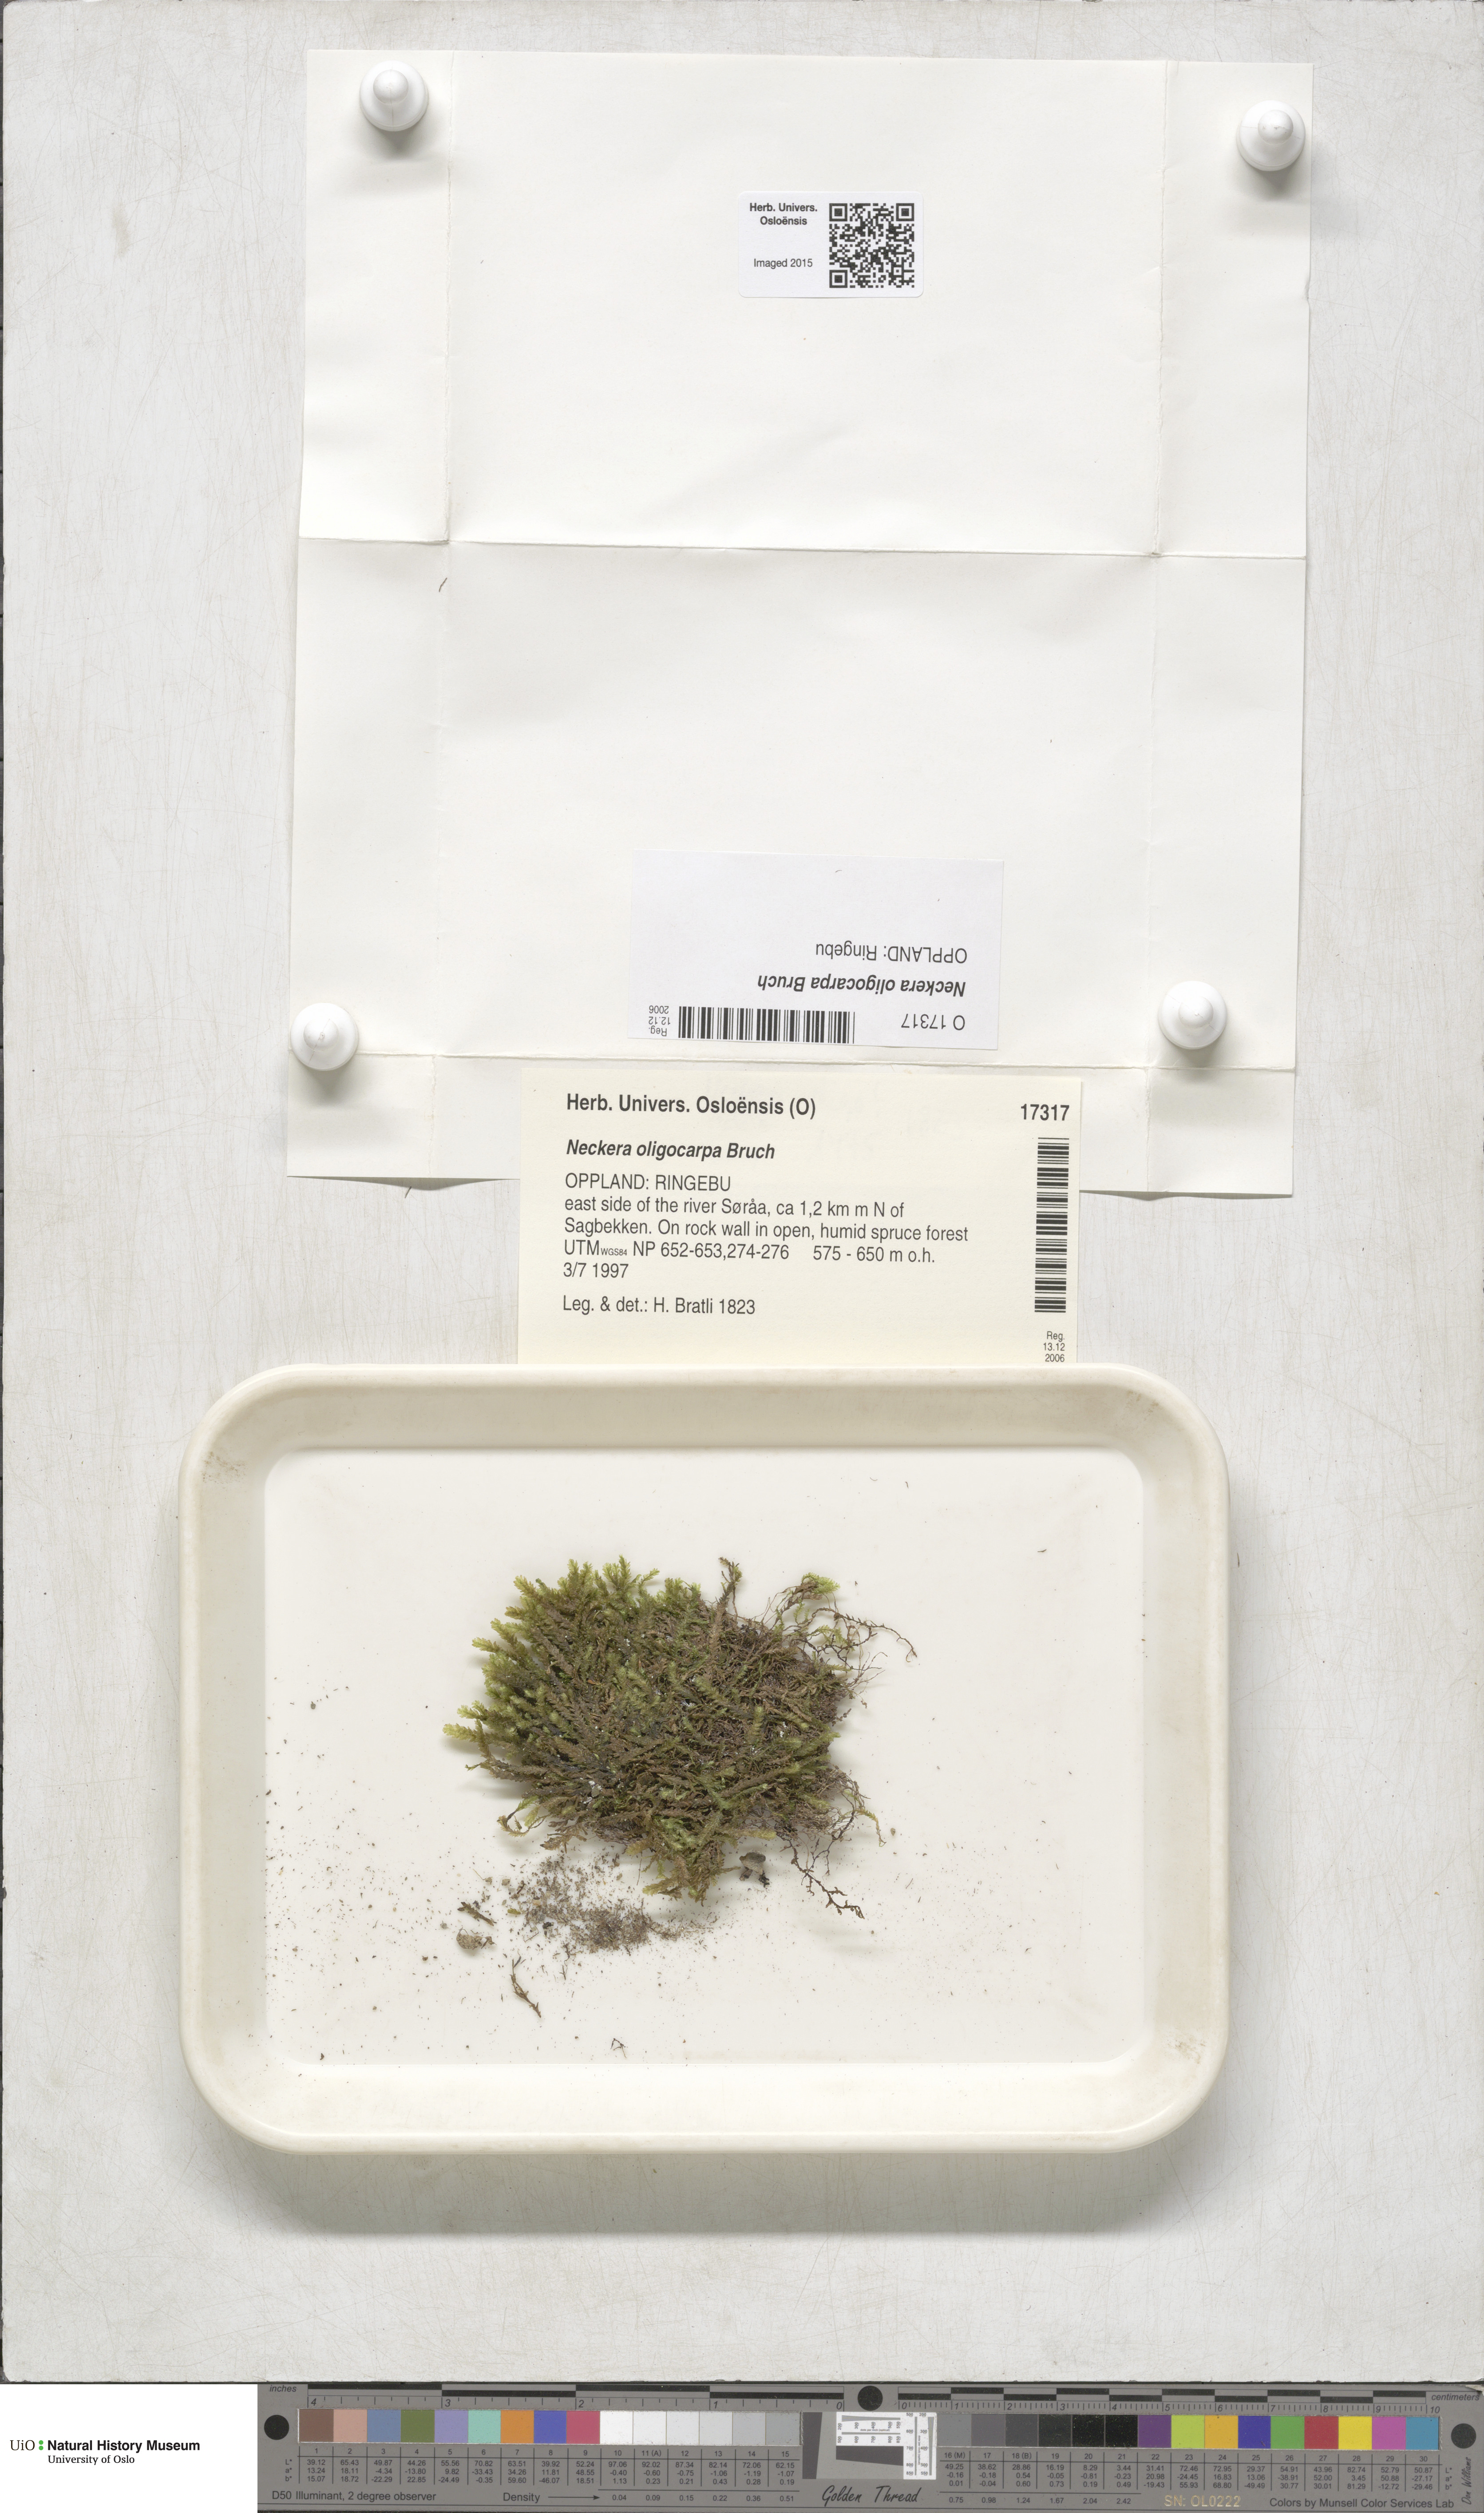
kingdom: Plantae
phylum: Bryophyta
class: Bryopsida
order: Hypnales
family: Neckeraceae
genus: Neckera
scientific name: Neckera oligocarpa
